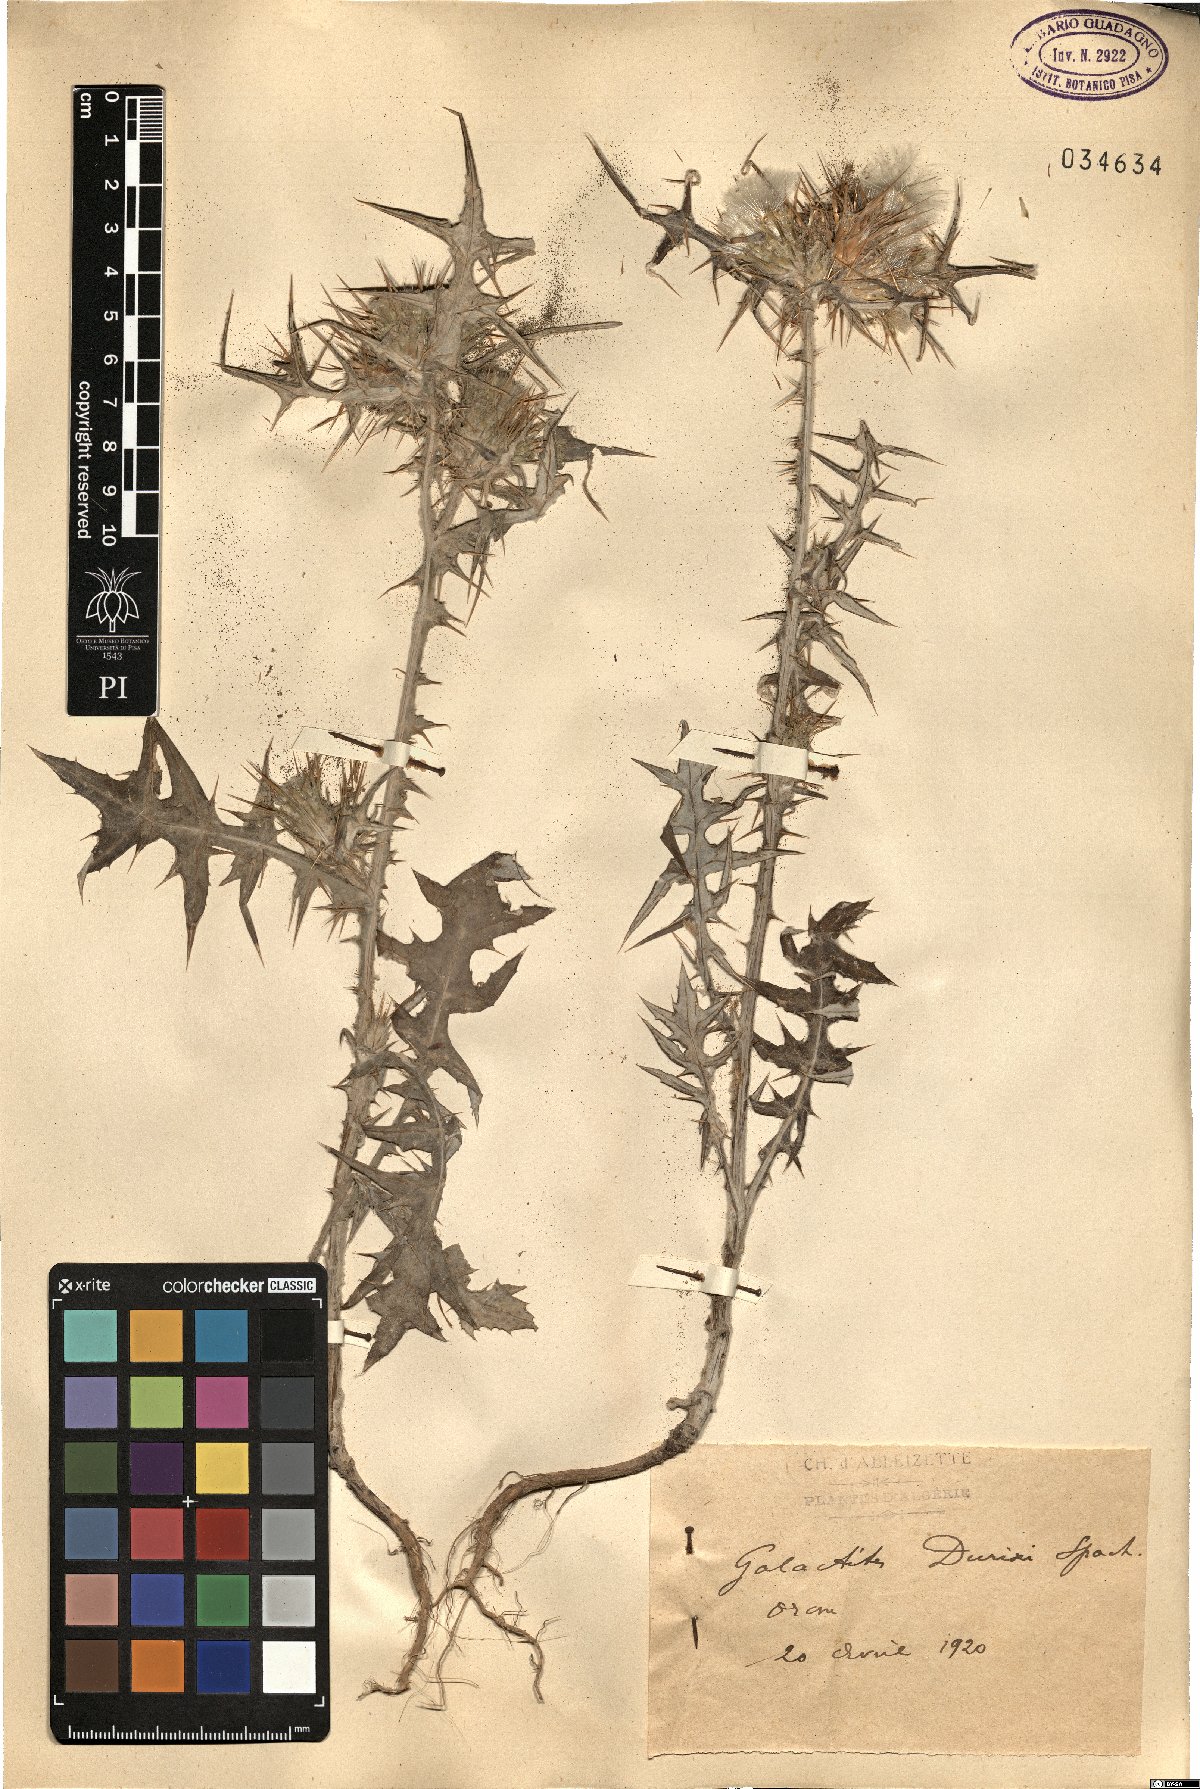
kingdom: Plantae
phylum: Tracheophyta
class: Magnoliopsida
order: Asterales
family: Asteraceae
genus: Galactites
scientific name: Galactites duriaei
